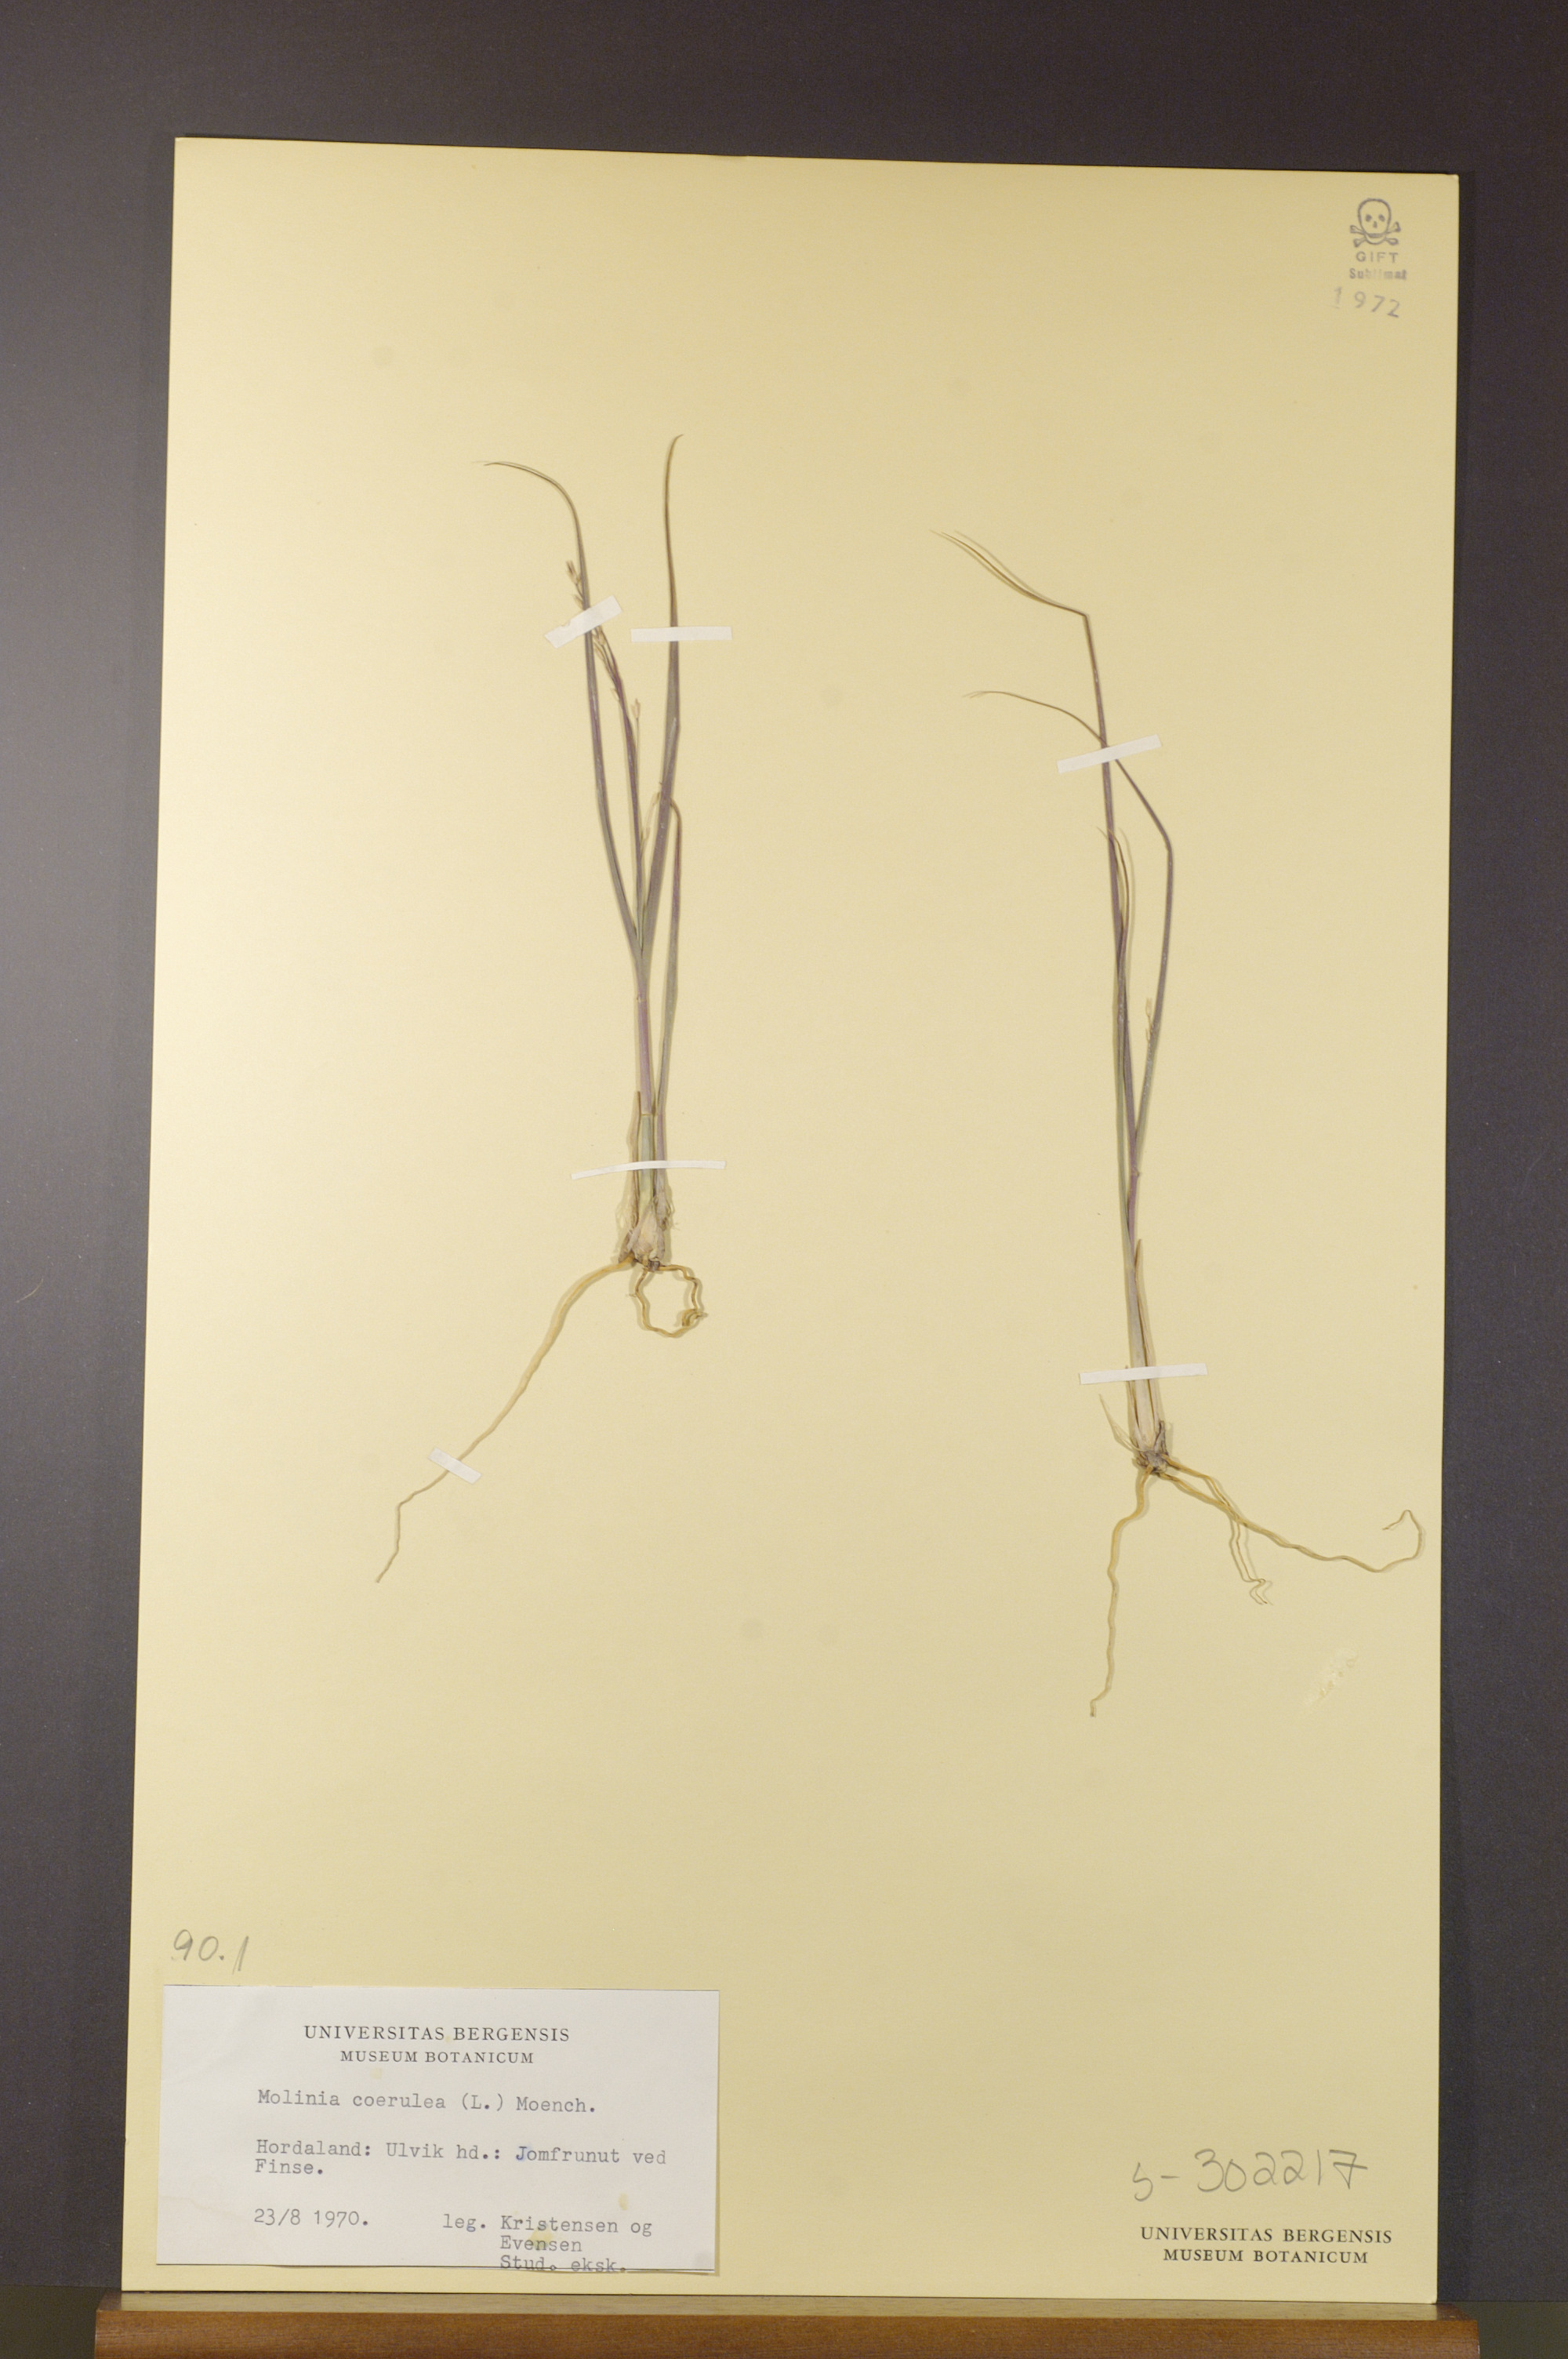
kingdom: Plantae
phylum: Tracheophyta
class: Liliopsida
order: Poales
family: Poaceae
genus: Molinia
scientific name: Molinia caerulea
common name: Purple moor-grass
